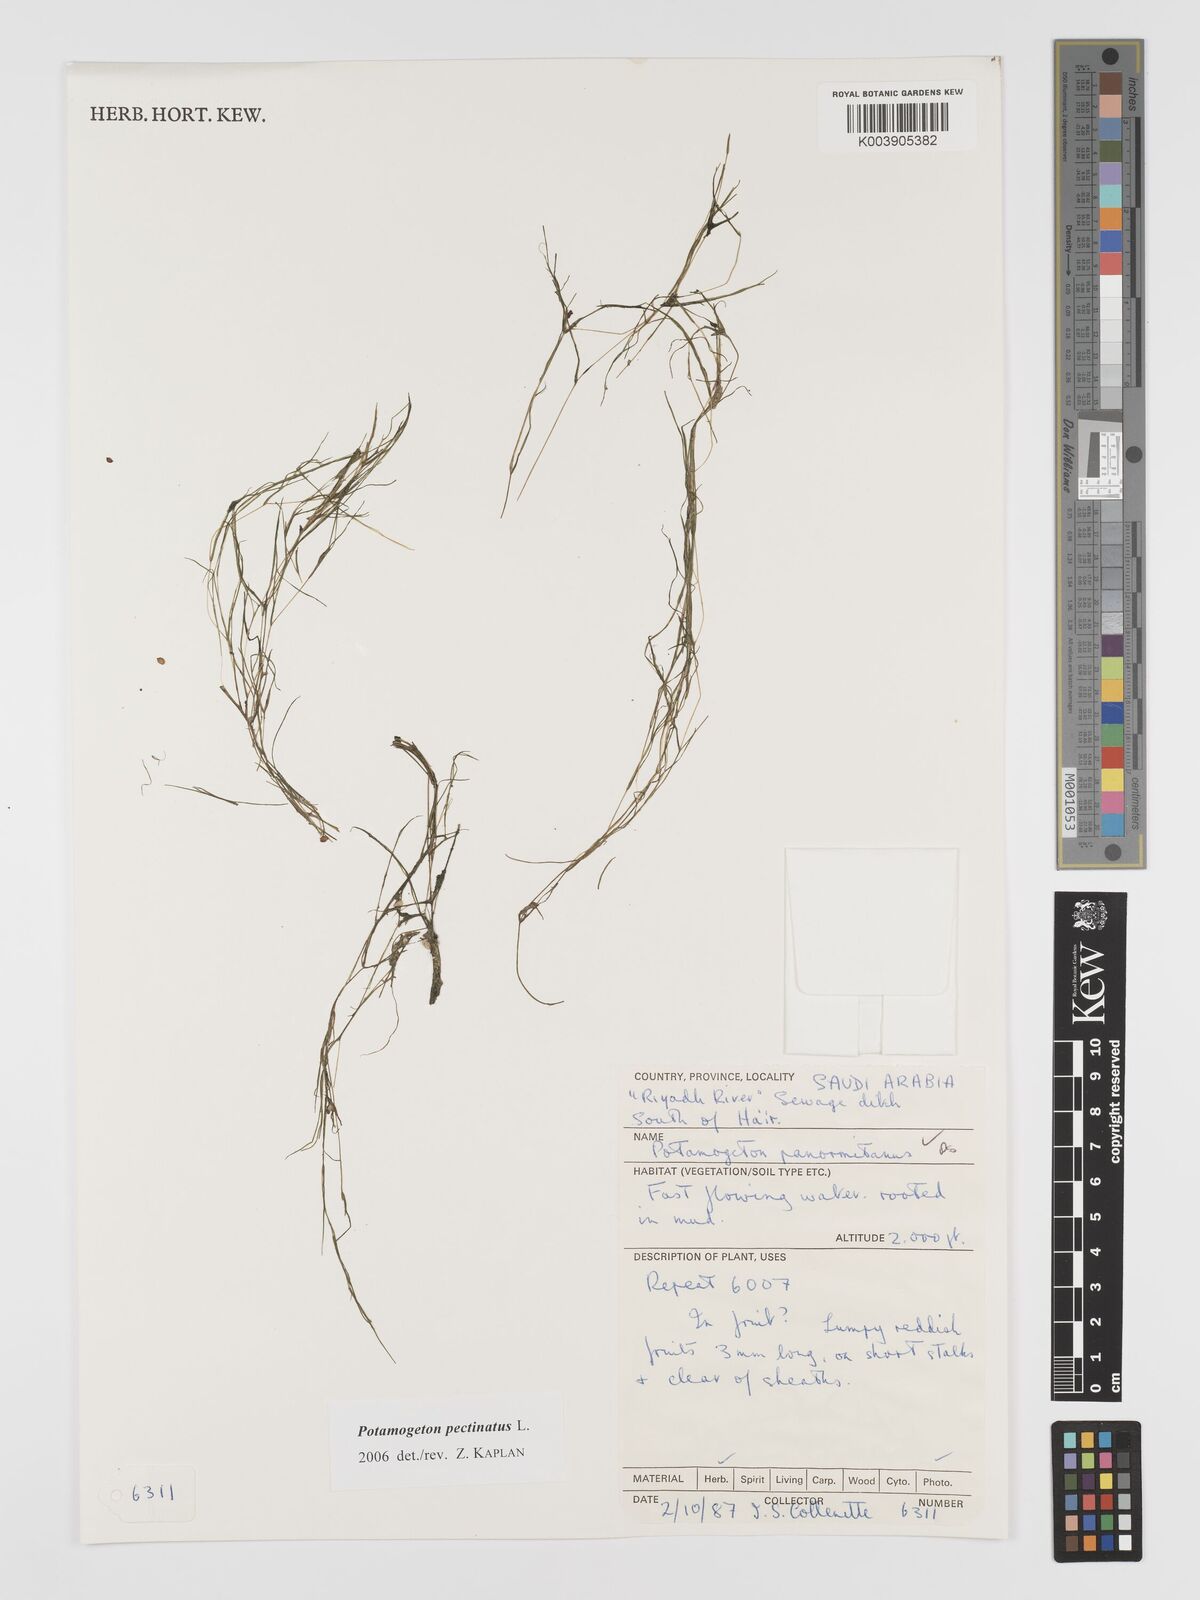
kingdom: Plantae
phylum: Tracheophyta
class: Liliopsida
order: Alismatales
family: Potamogetonaceae
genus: Stuckenia
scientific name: Stuckenia pectinata
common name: Sago pondweed
